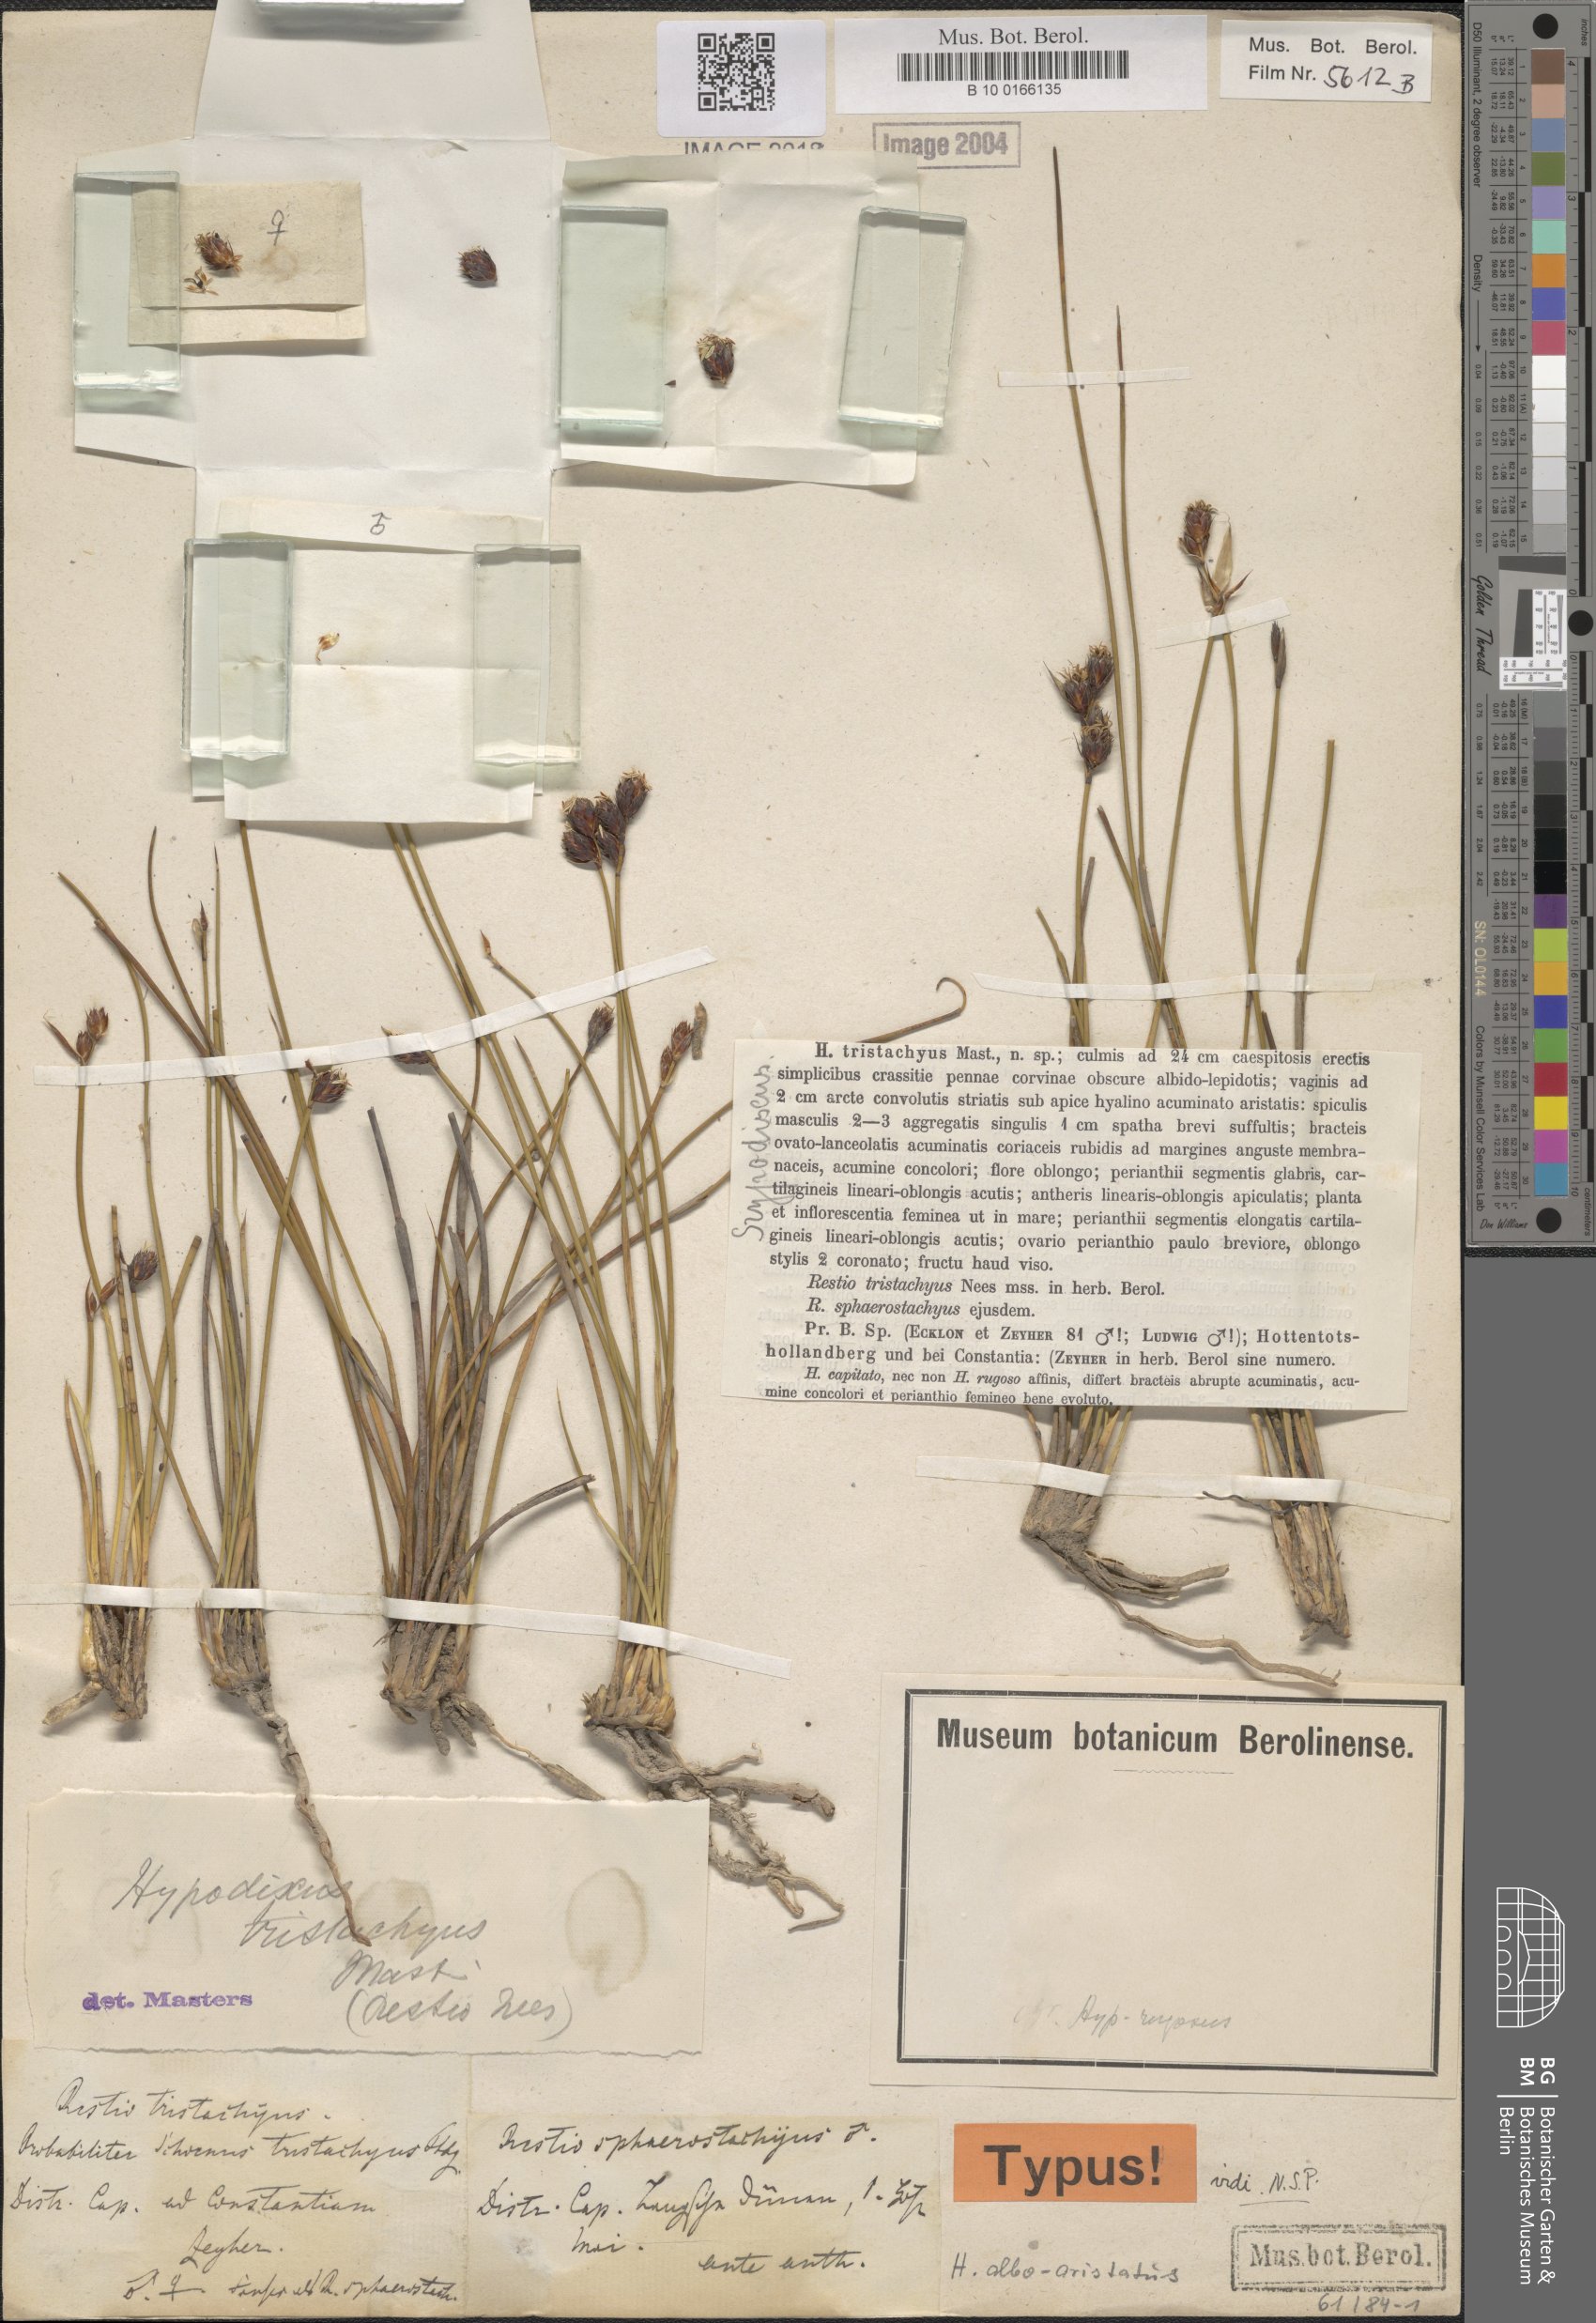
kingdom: Plantae
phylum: Tracheophyta
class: Liliopsida
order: Poales
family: Restionaceae
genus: Hypodiscus
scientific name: Hypodiscus alboaristatus
